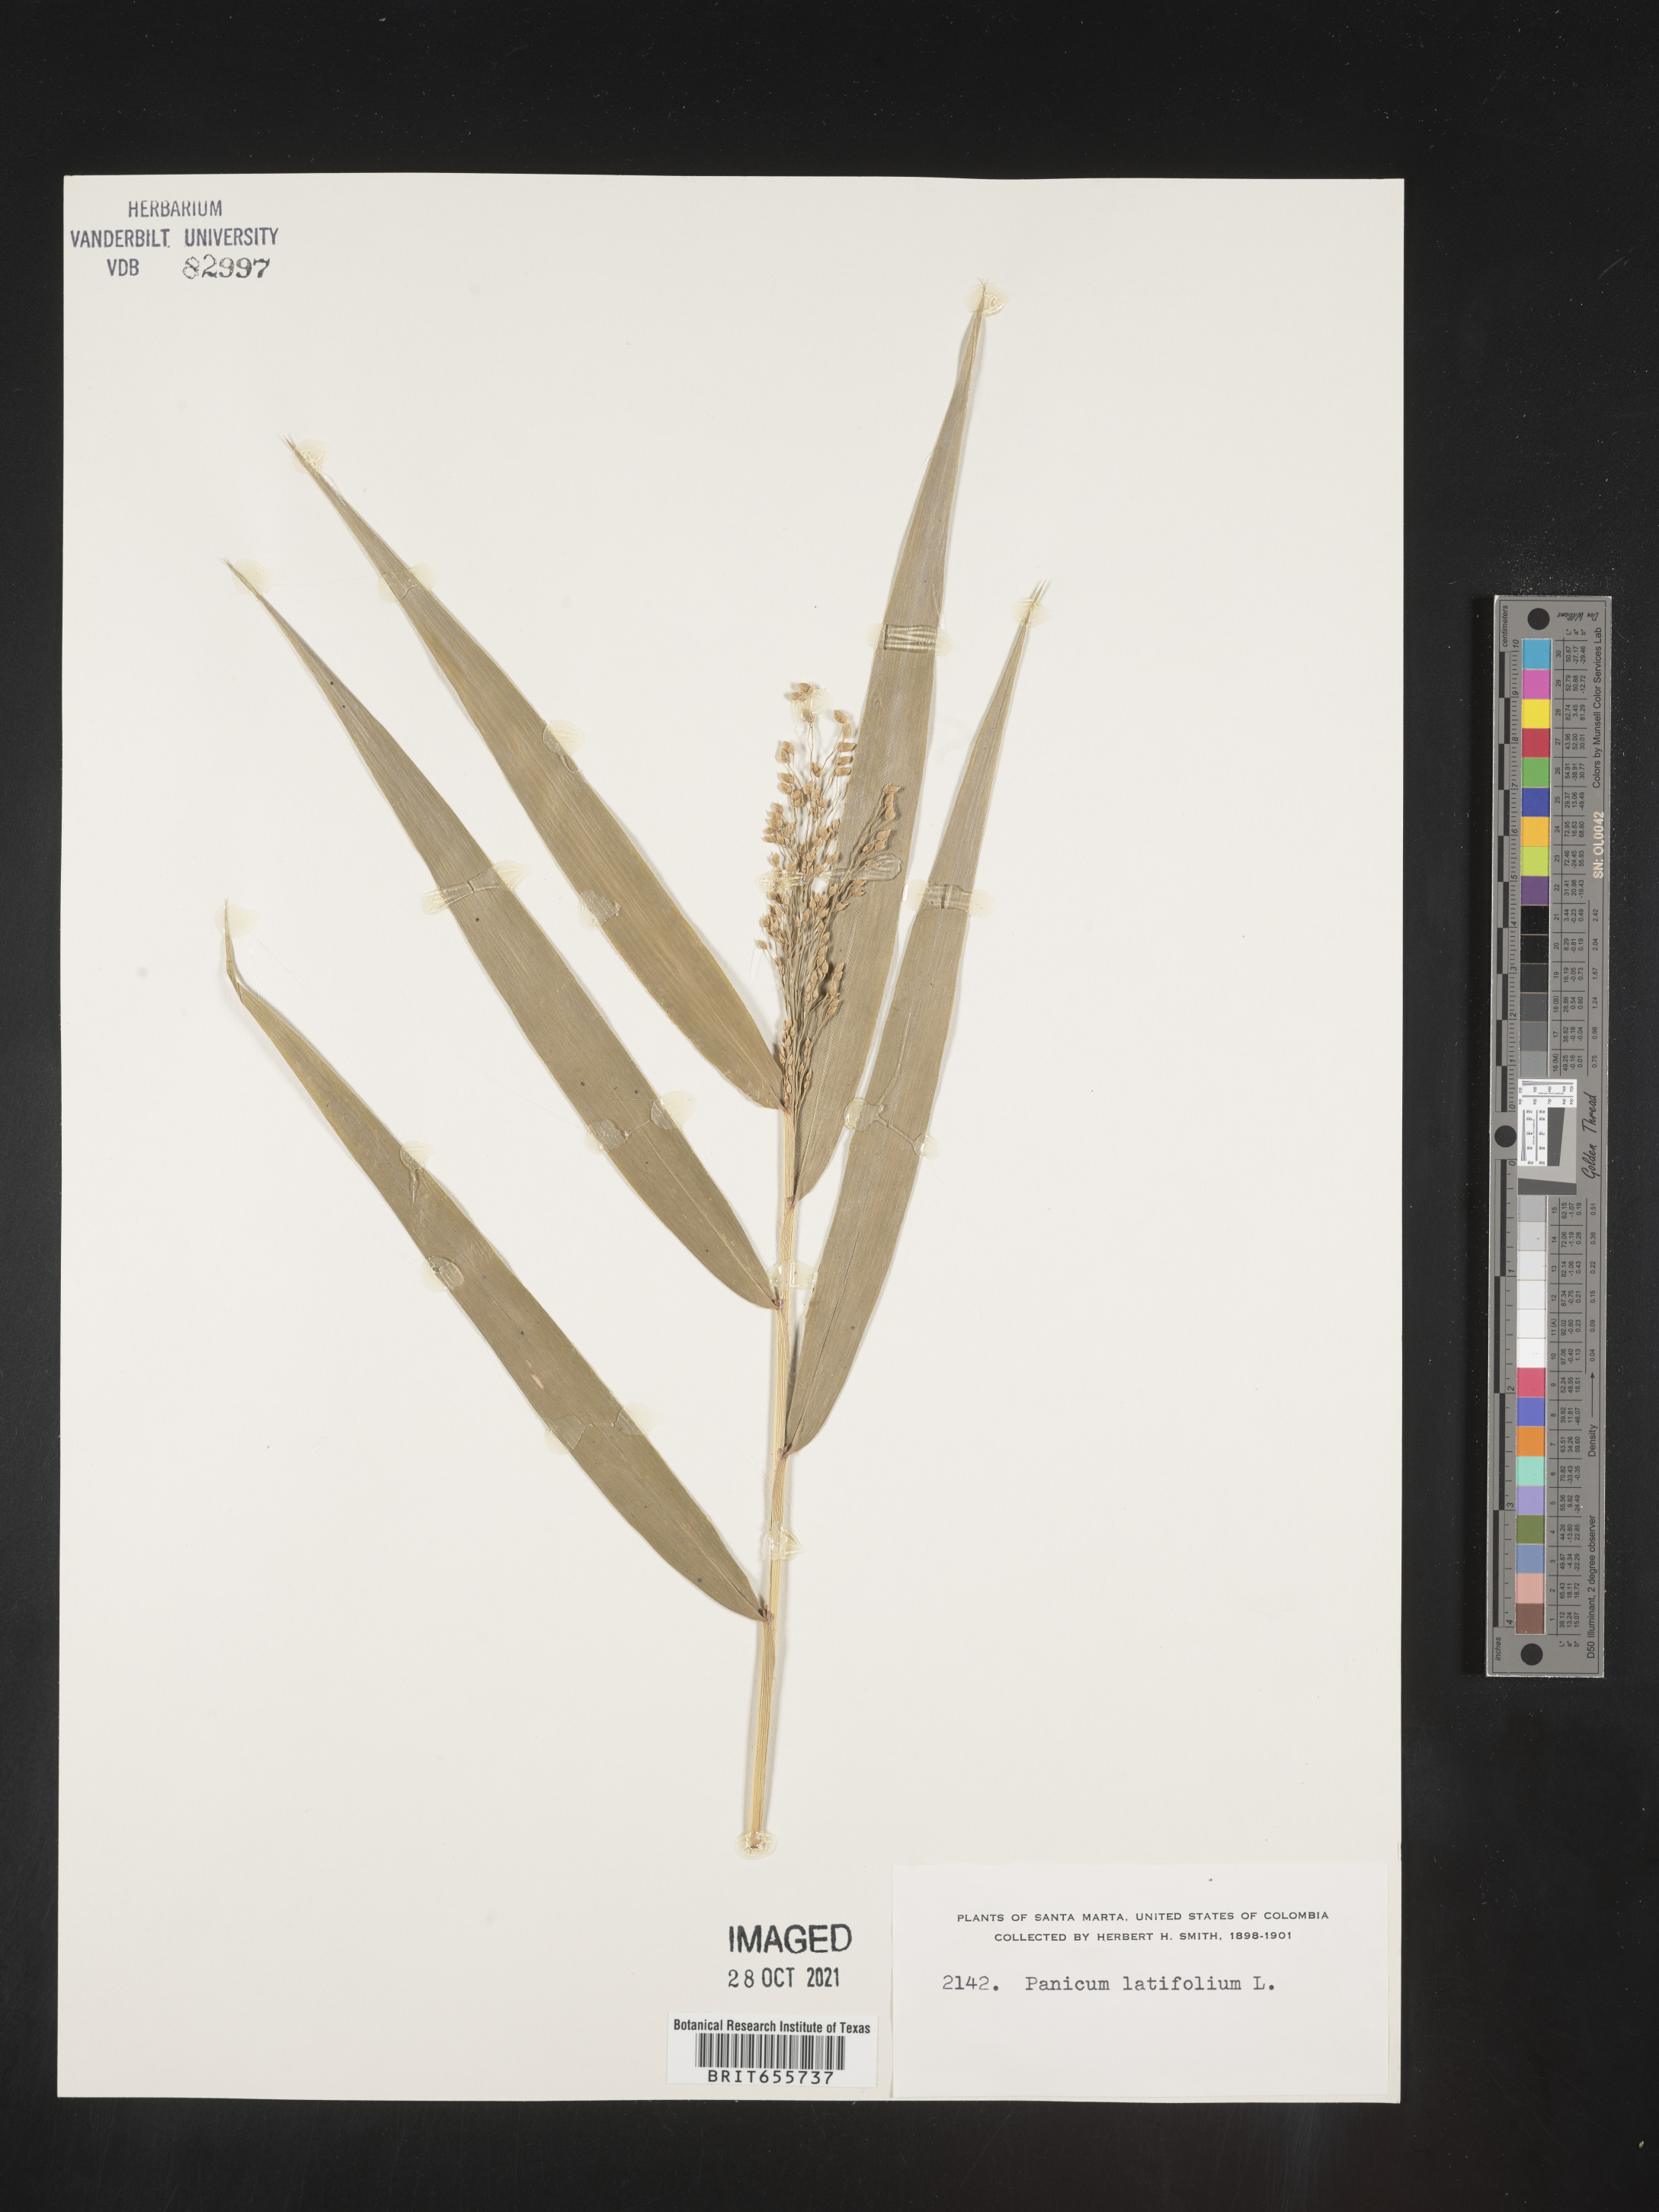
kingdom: Plantae
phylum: Tracheophyta
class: Liliopsida
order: Poales
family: Poaceae
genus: Panicum
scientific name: Panicum
